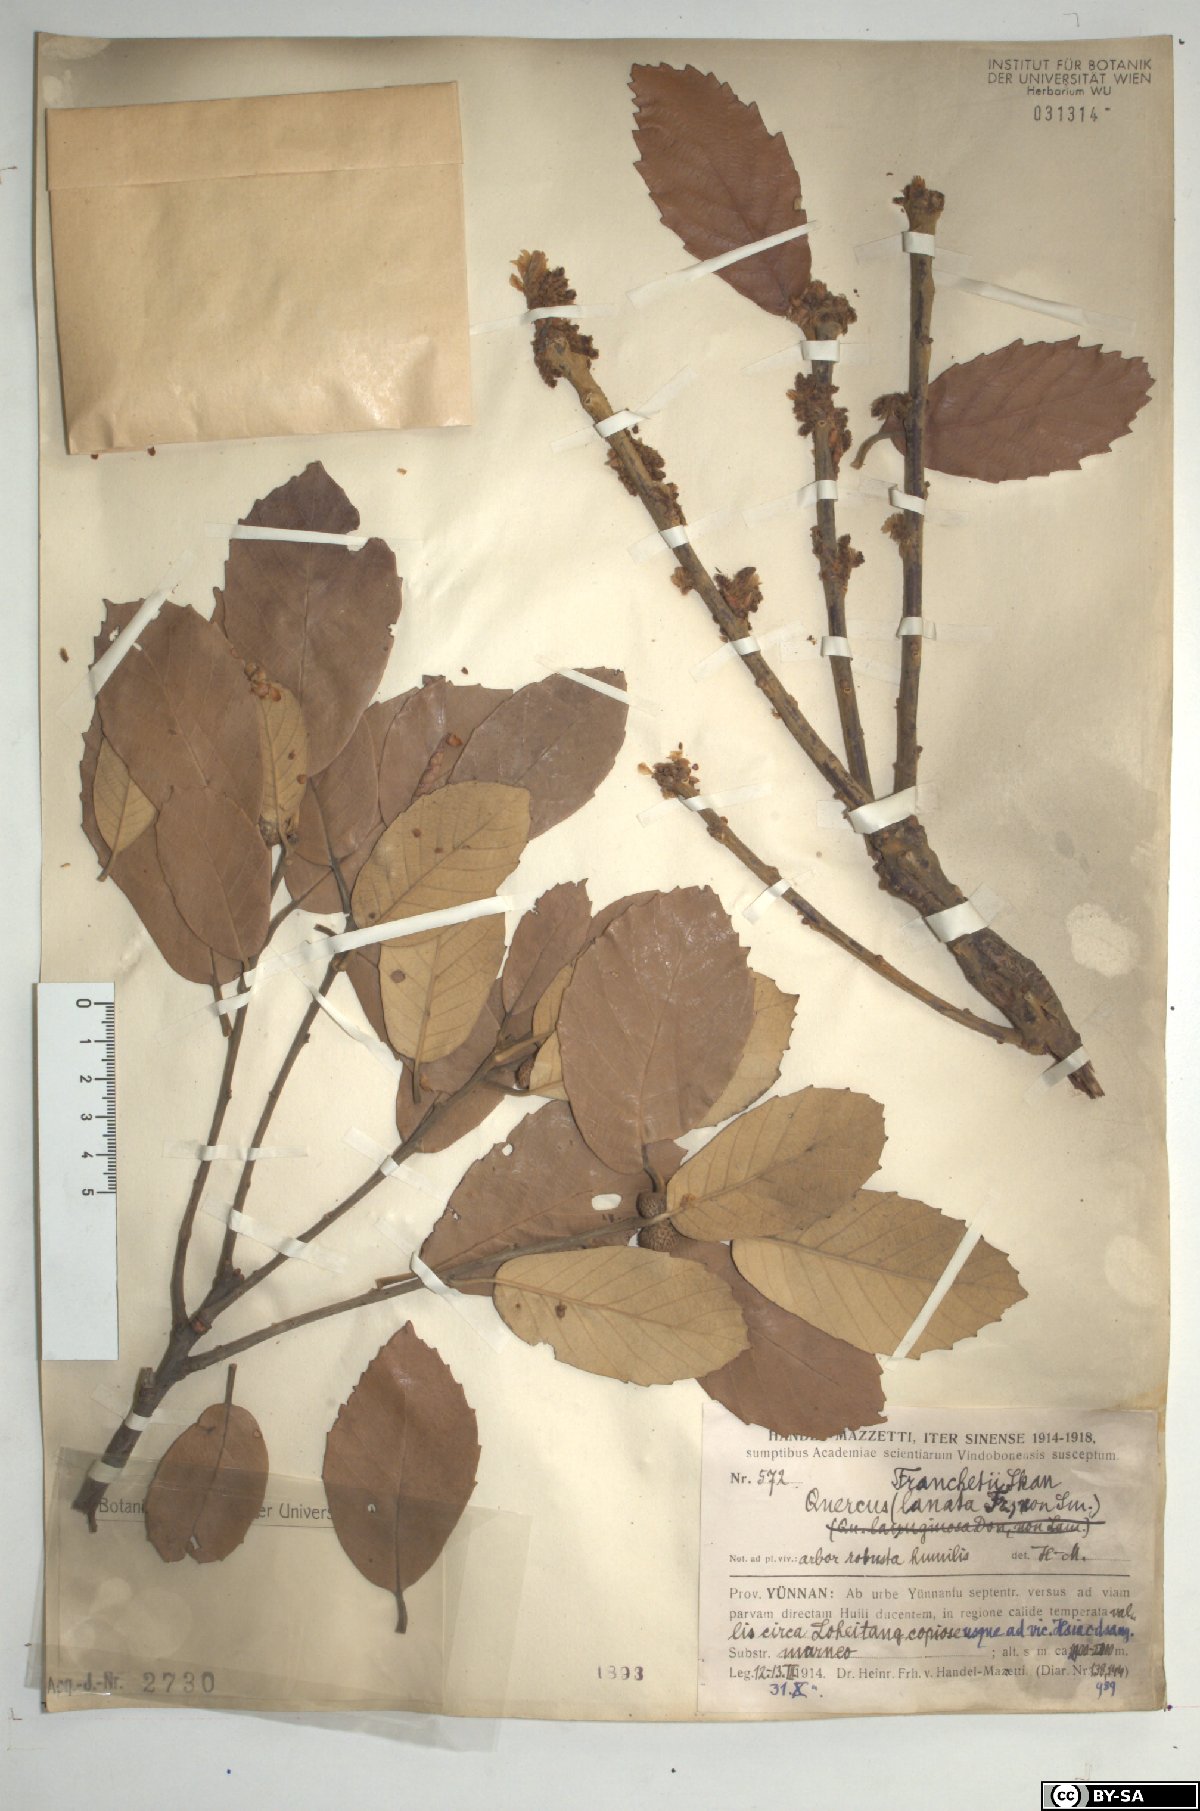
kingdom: Plantae
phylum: Tracheophyta
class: Magnoliopsida
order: Fagales
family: Fagaceae
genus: Quercus
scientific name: Quercus franchetii
